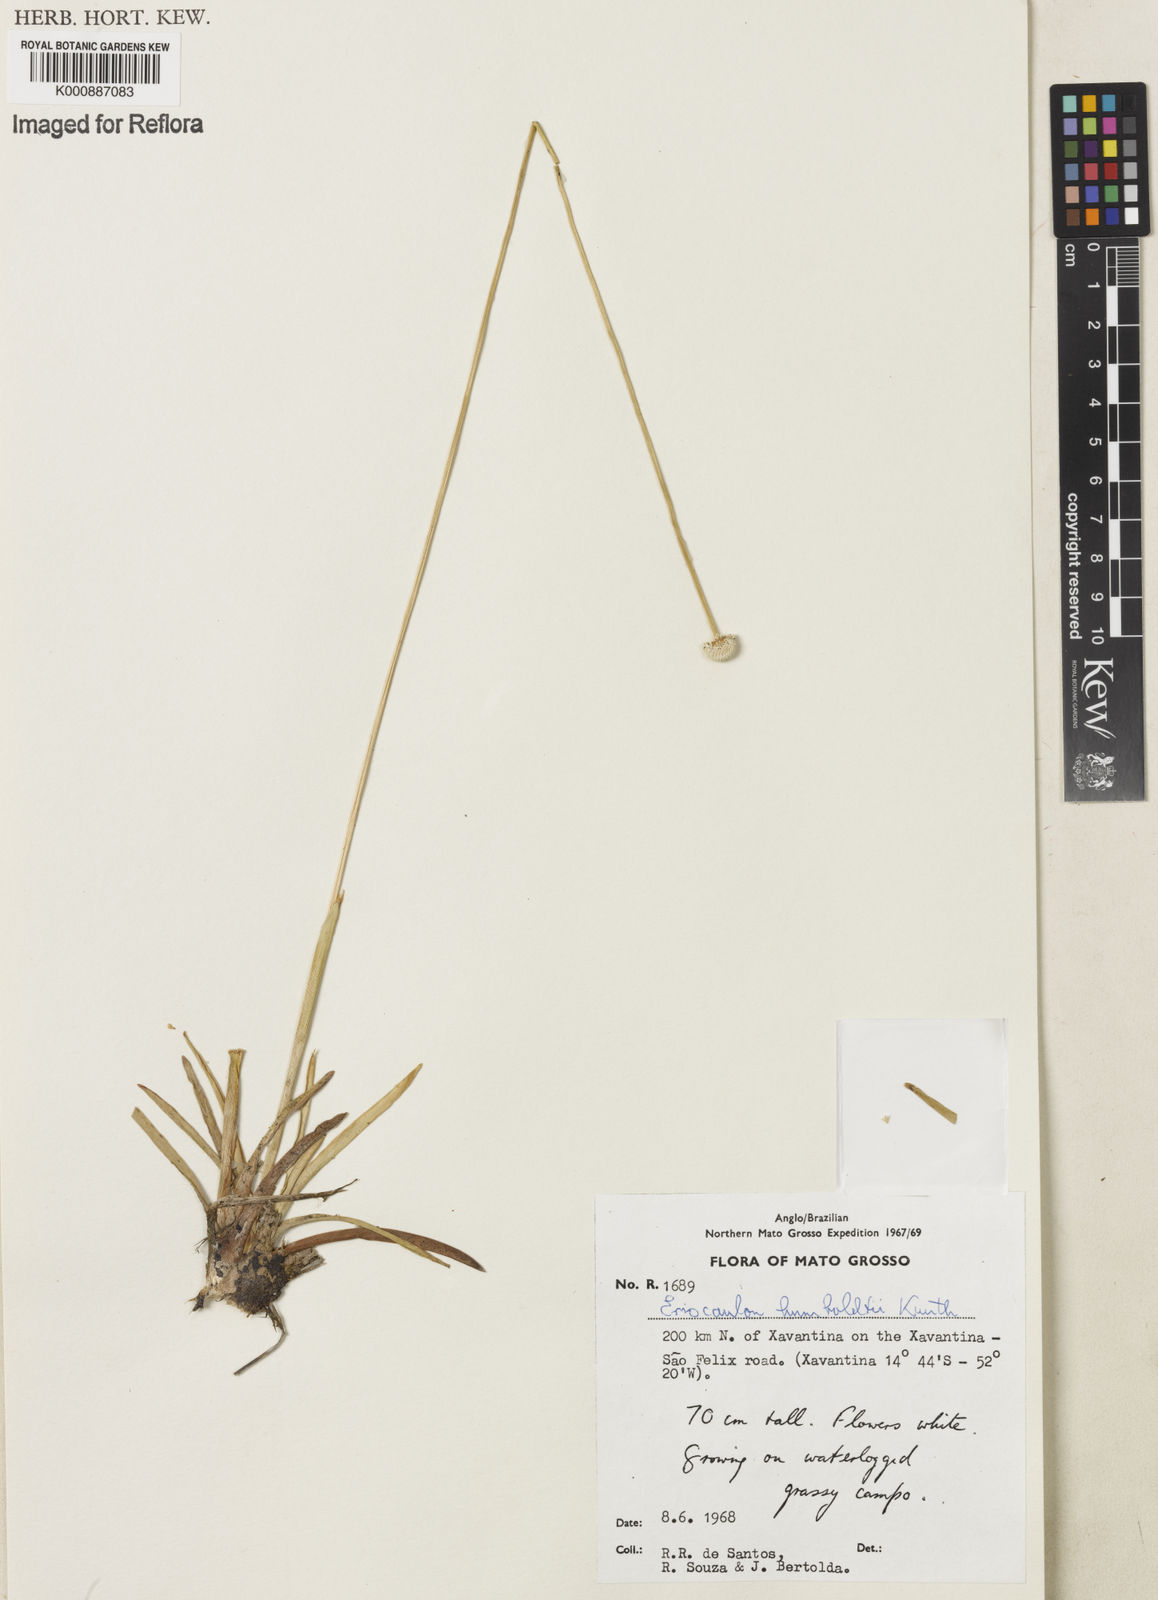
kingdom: Plantae
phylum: Tracheophyta
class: Liliopsida
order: Poales
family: Eriocaulaceae
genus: Eriocaulon
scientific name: Eriocaulon humboldtii
